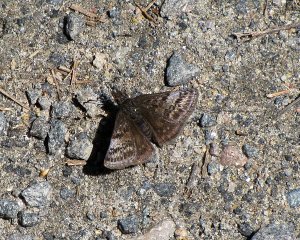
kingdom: Animalia
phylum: Arthropoda
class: Insecta
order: Lepidoptera
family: Hesperiidae
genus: Erynnis
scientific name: Erynnis icelus
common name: Dreamy Duskywing
